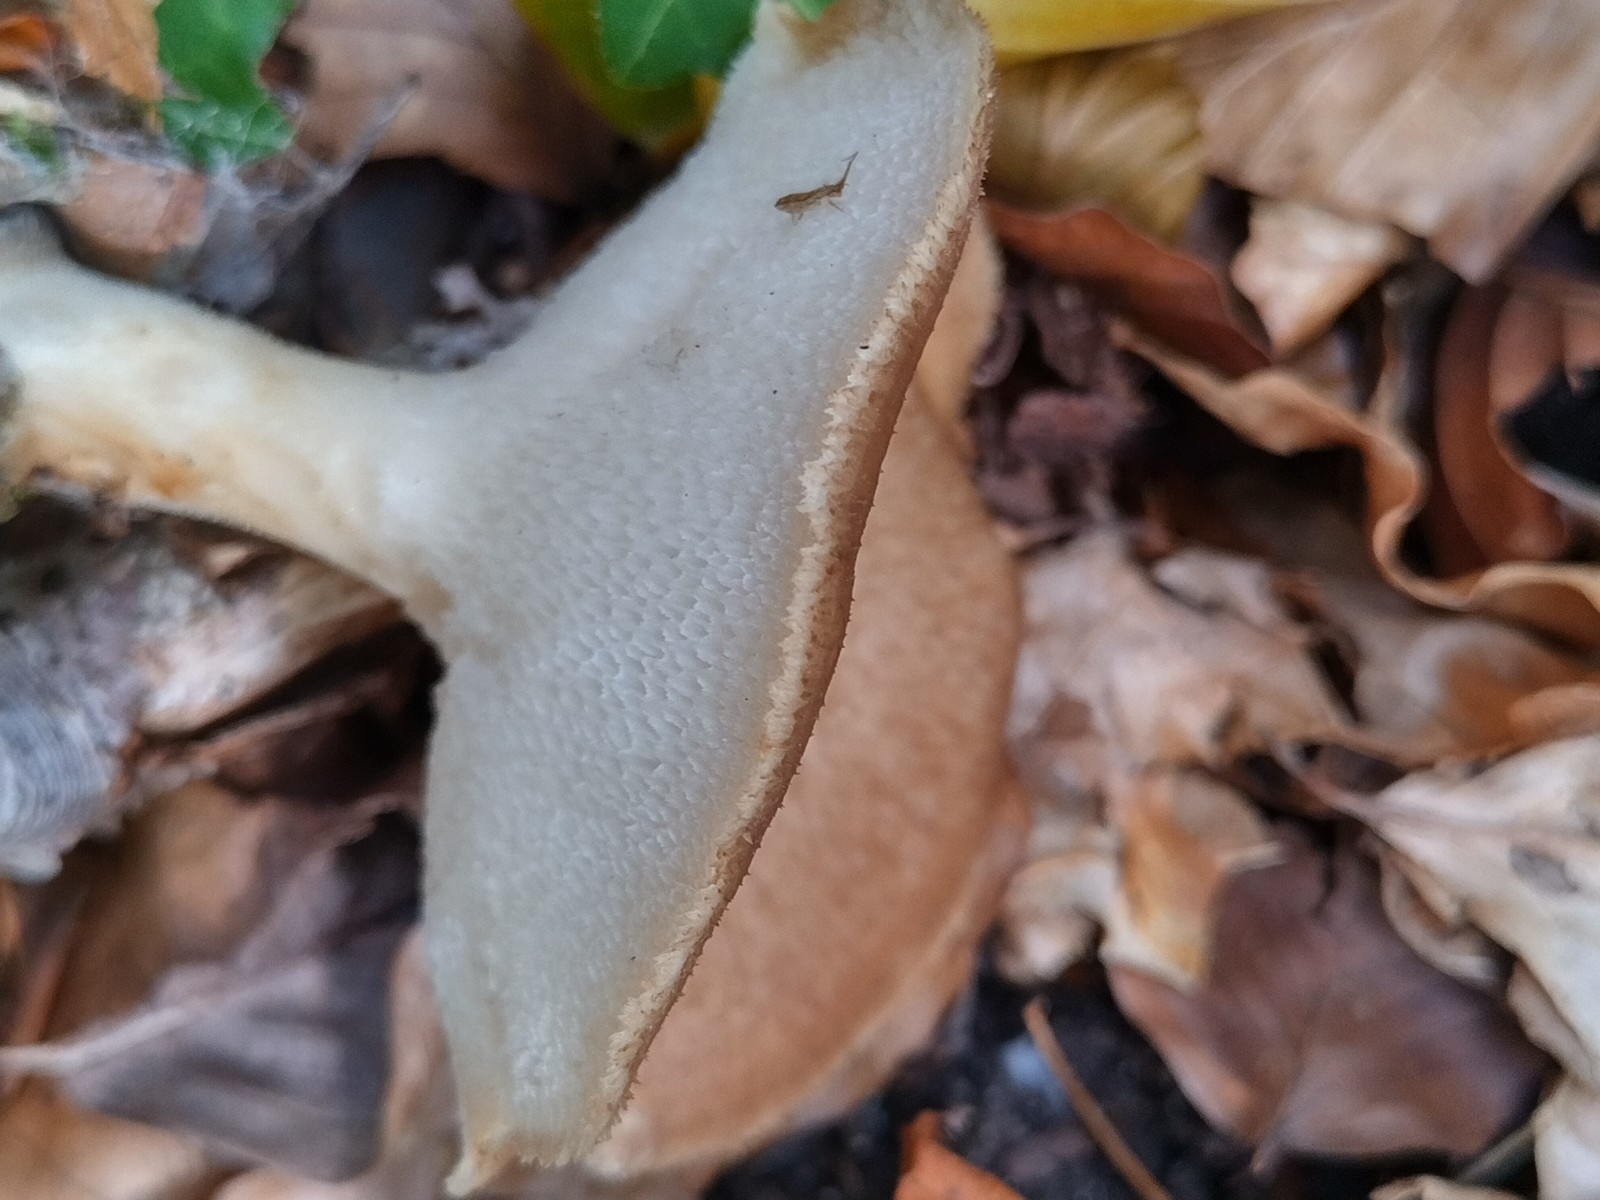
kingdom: Fungi
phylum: Basidiomycota
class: Agaricomycetes
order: Polyporales
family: Polyporaceae
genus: Polyporus
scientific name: Polyporus tuberaster
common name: knoldet stilkporesvamp
